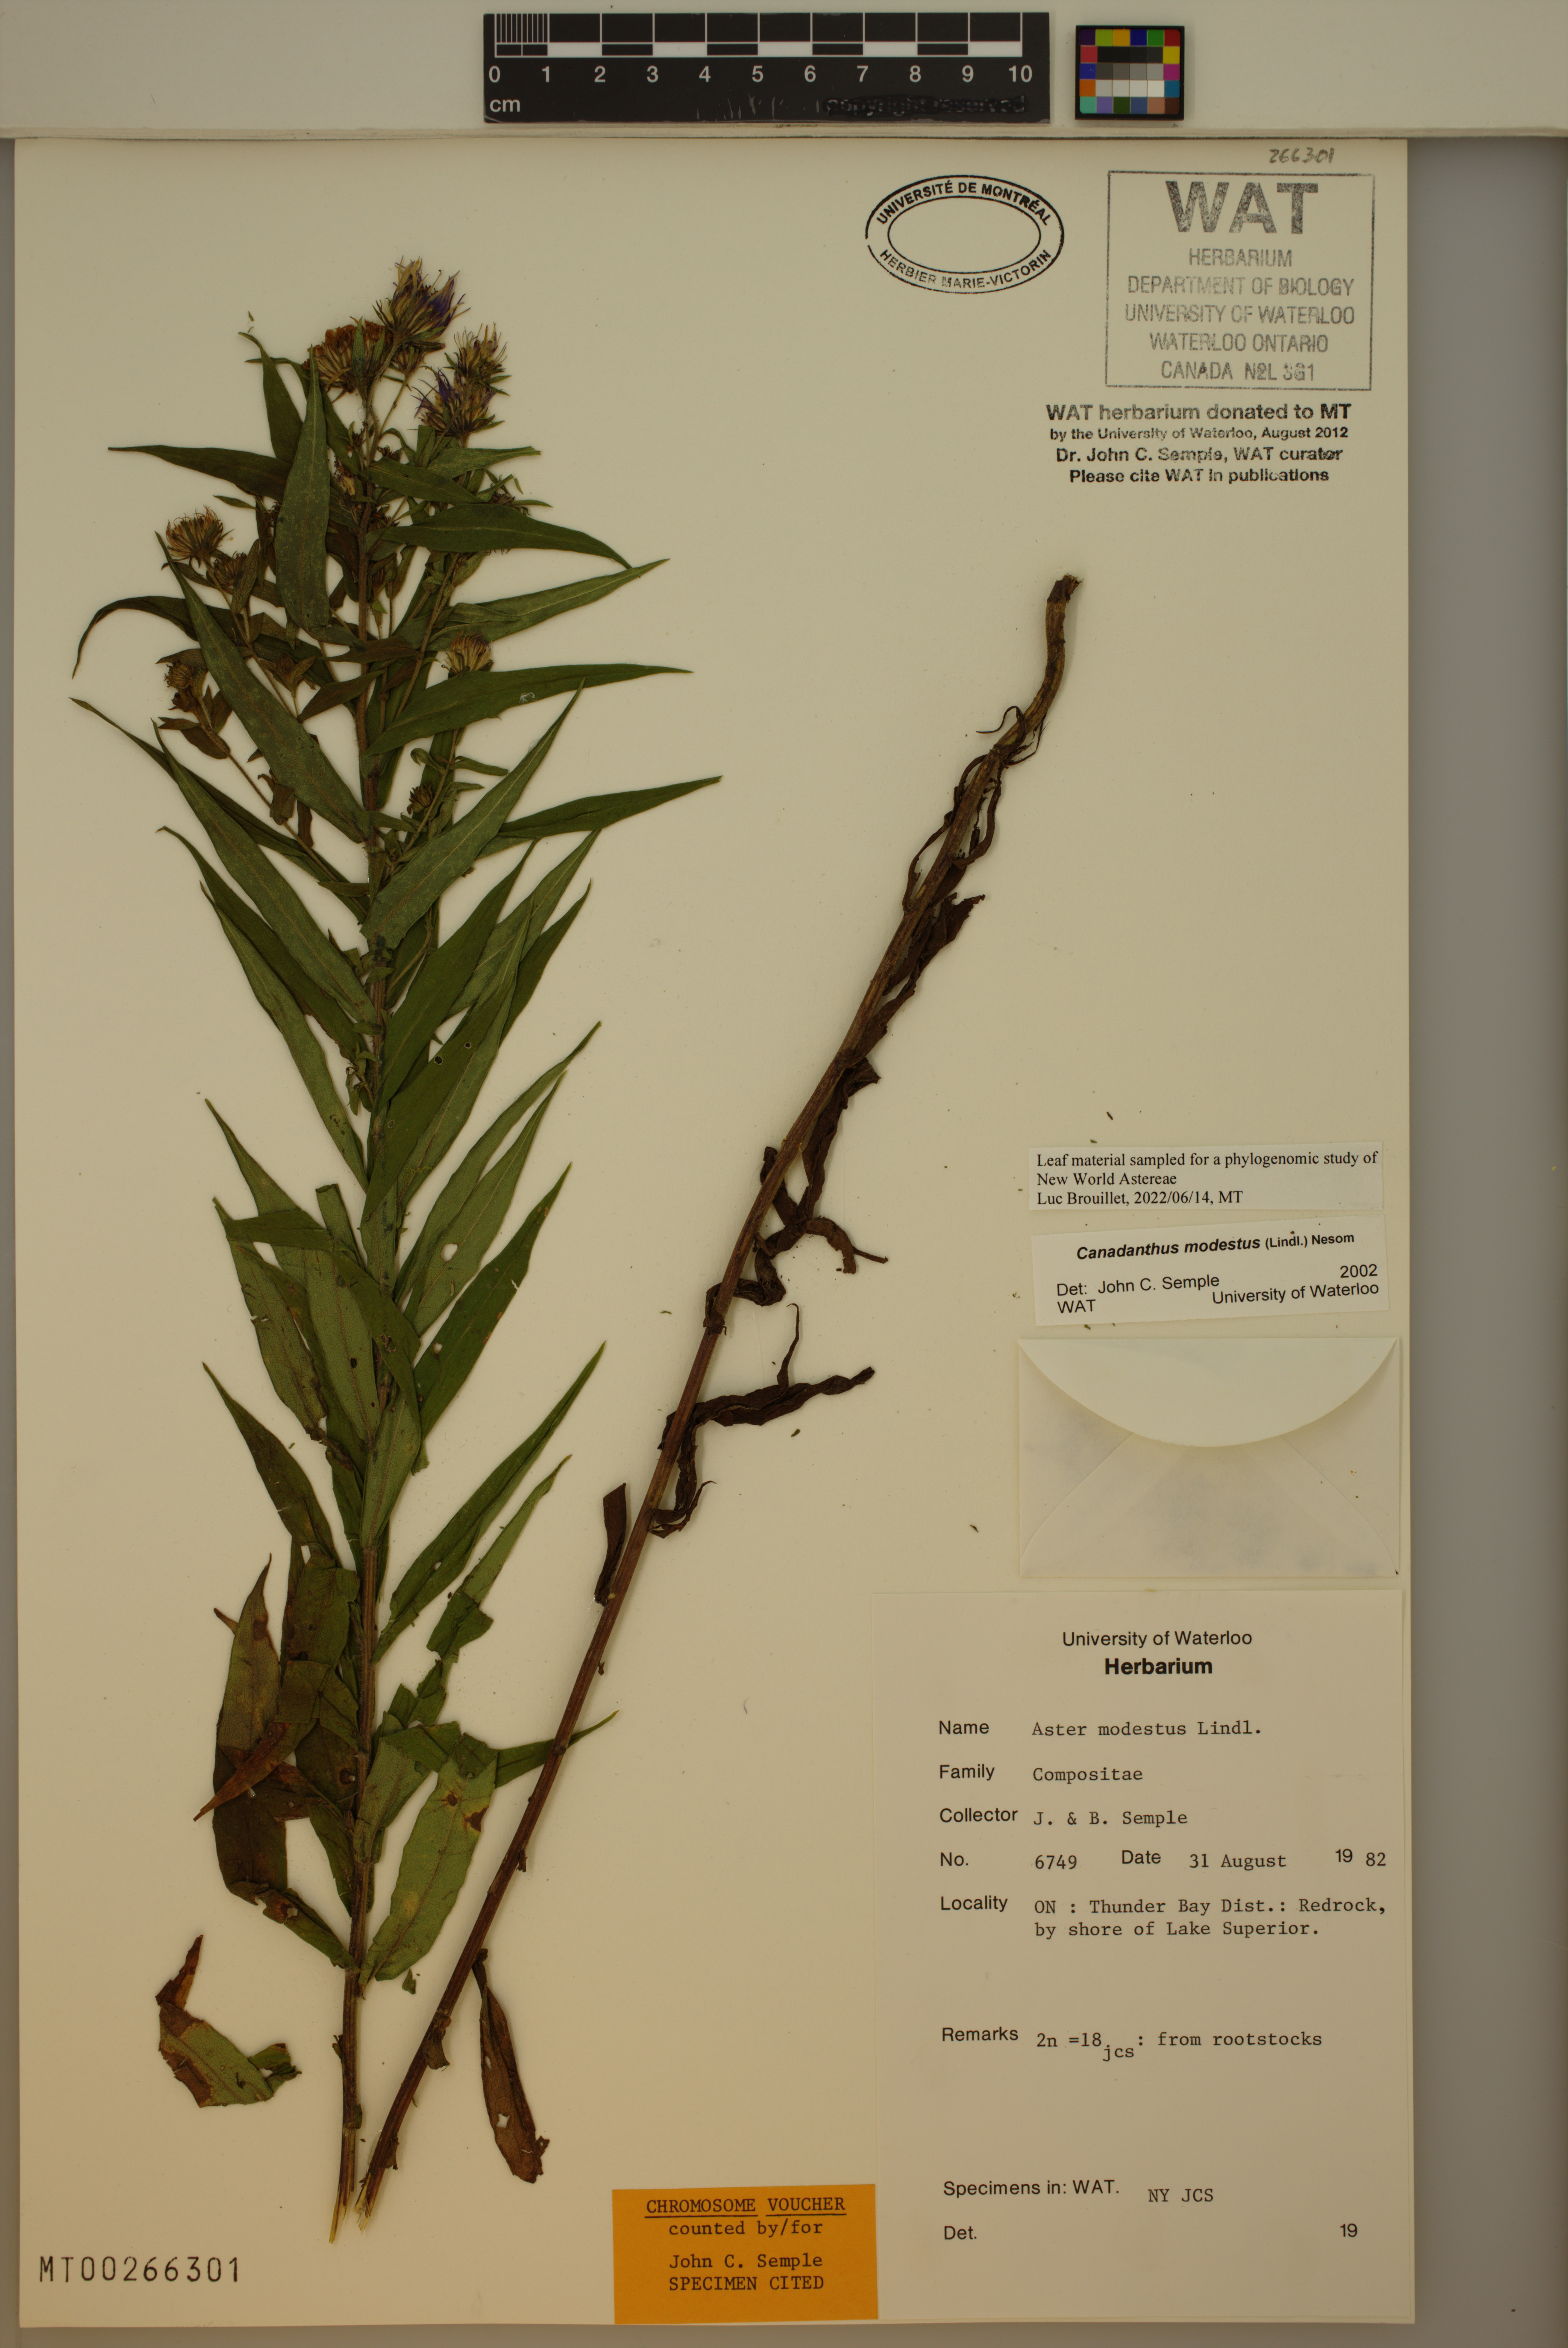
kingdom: Plantae
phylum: Tracheophyta
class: Magnoliopsida
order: Asterales
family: Asteraceae
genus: Canadanthus
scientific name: Canadanthus modestus
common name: Great northern aster
